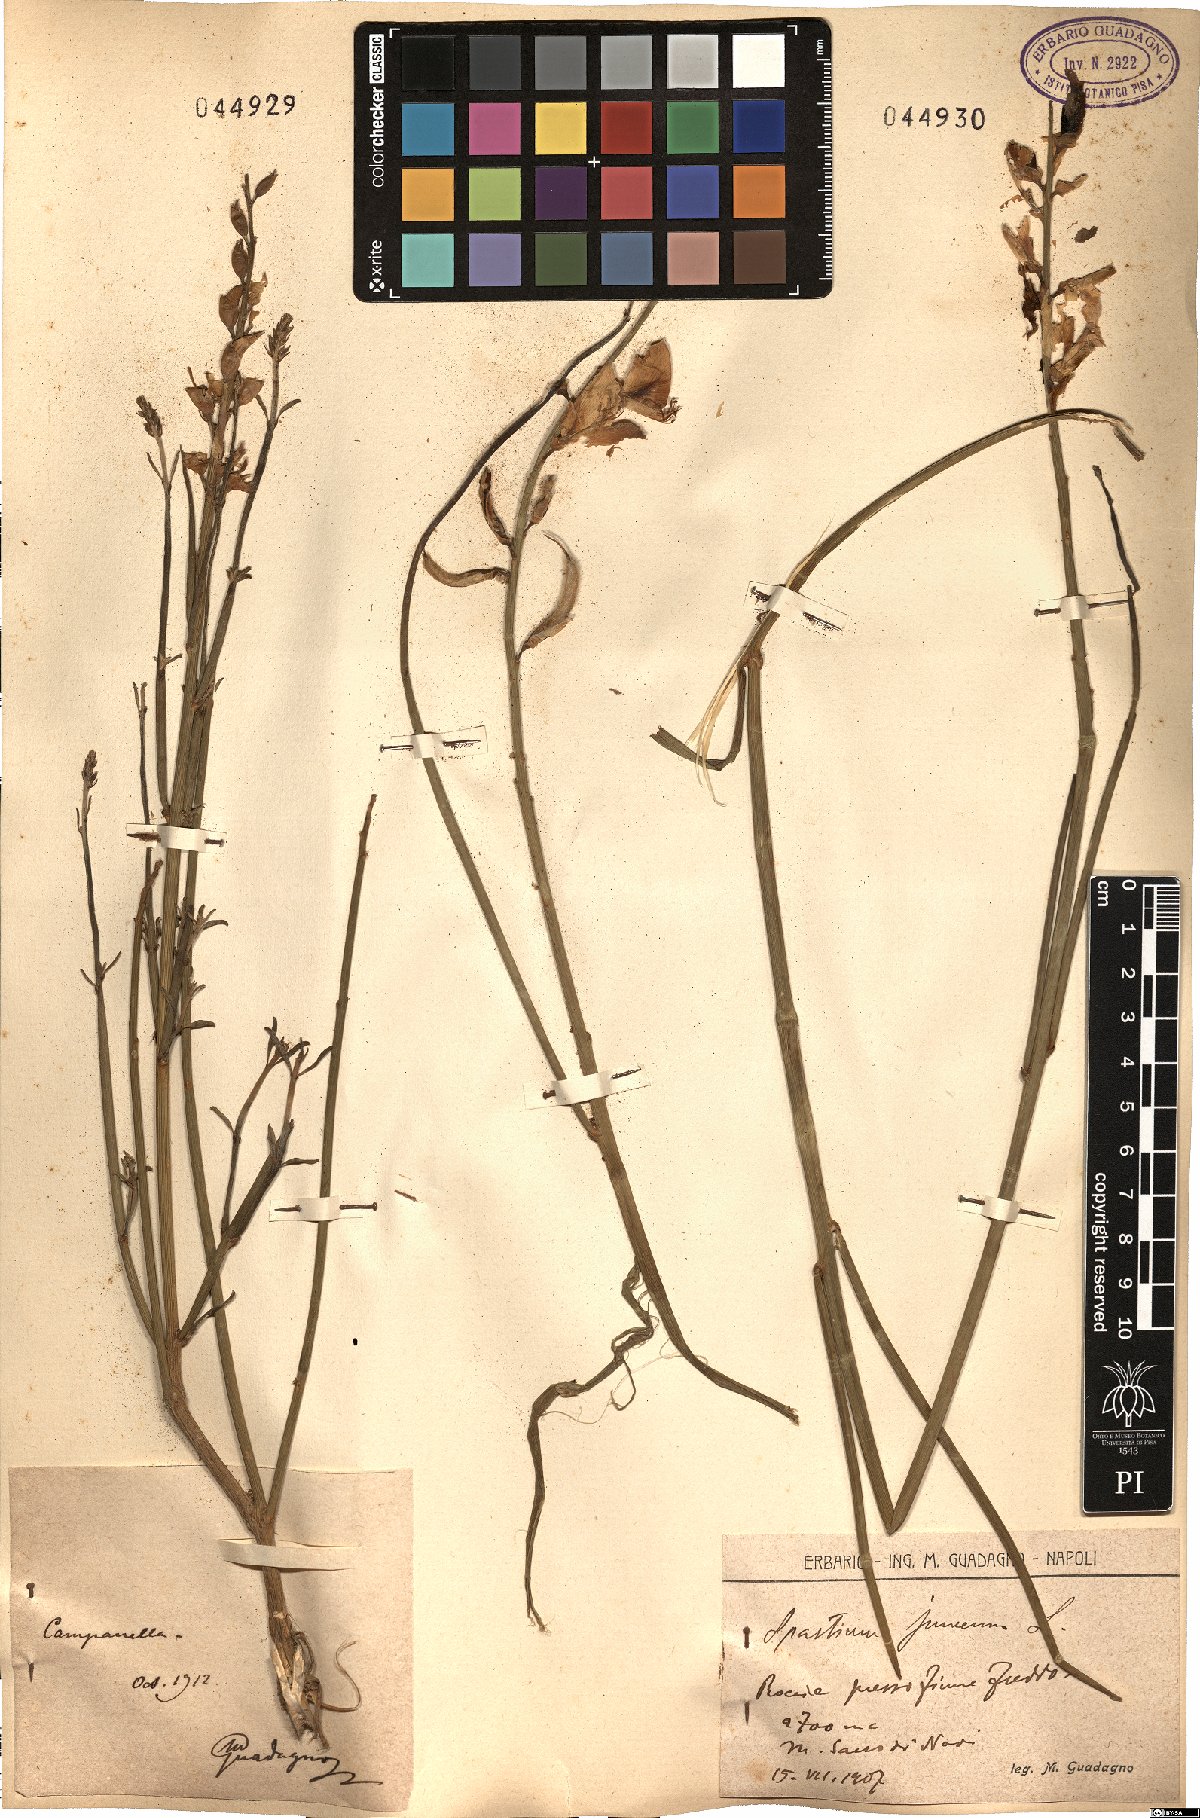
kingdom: Plantae
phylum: Tracheophyta
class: Magnoliopsida
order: Fabales
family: Fabaceae
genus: Spartium
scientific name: Spartium
